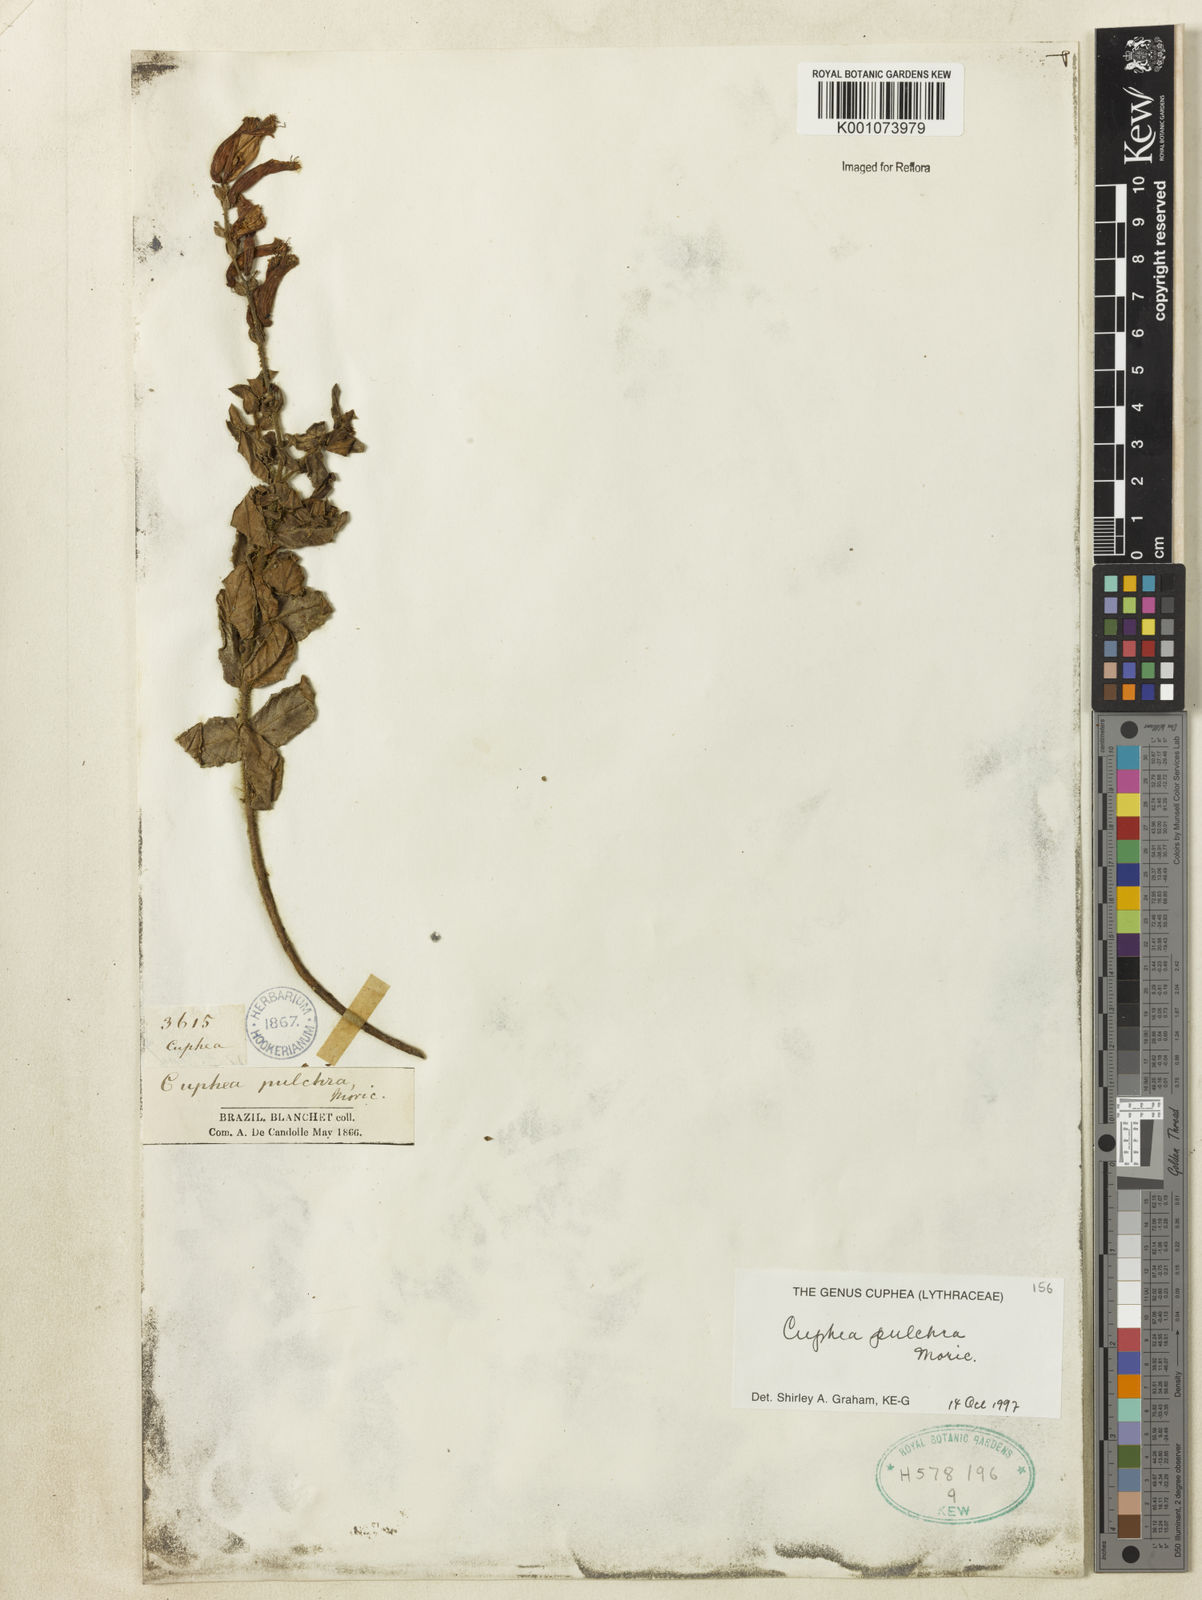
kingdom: Plantae
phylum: Tracheophyta
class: Magnoliopsida
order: Myrtales
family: Lythraceae
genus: Cuphea
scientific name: Cuphea pulchra
